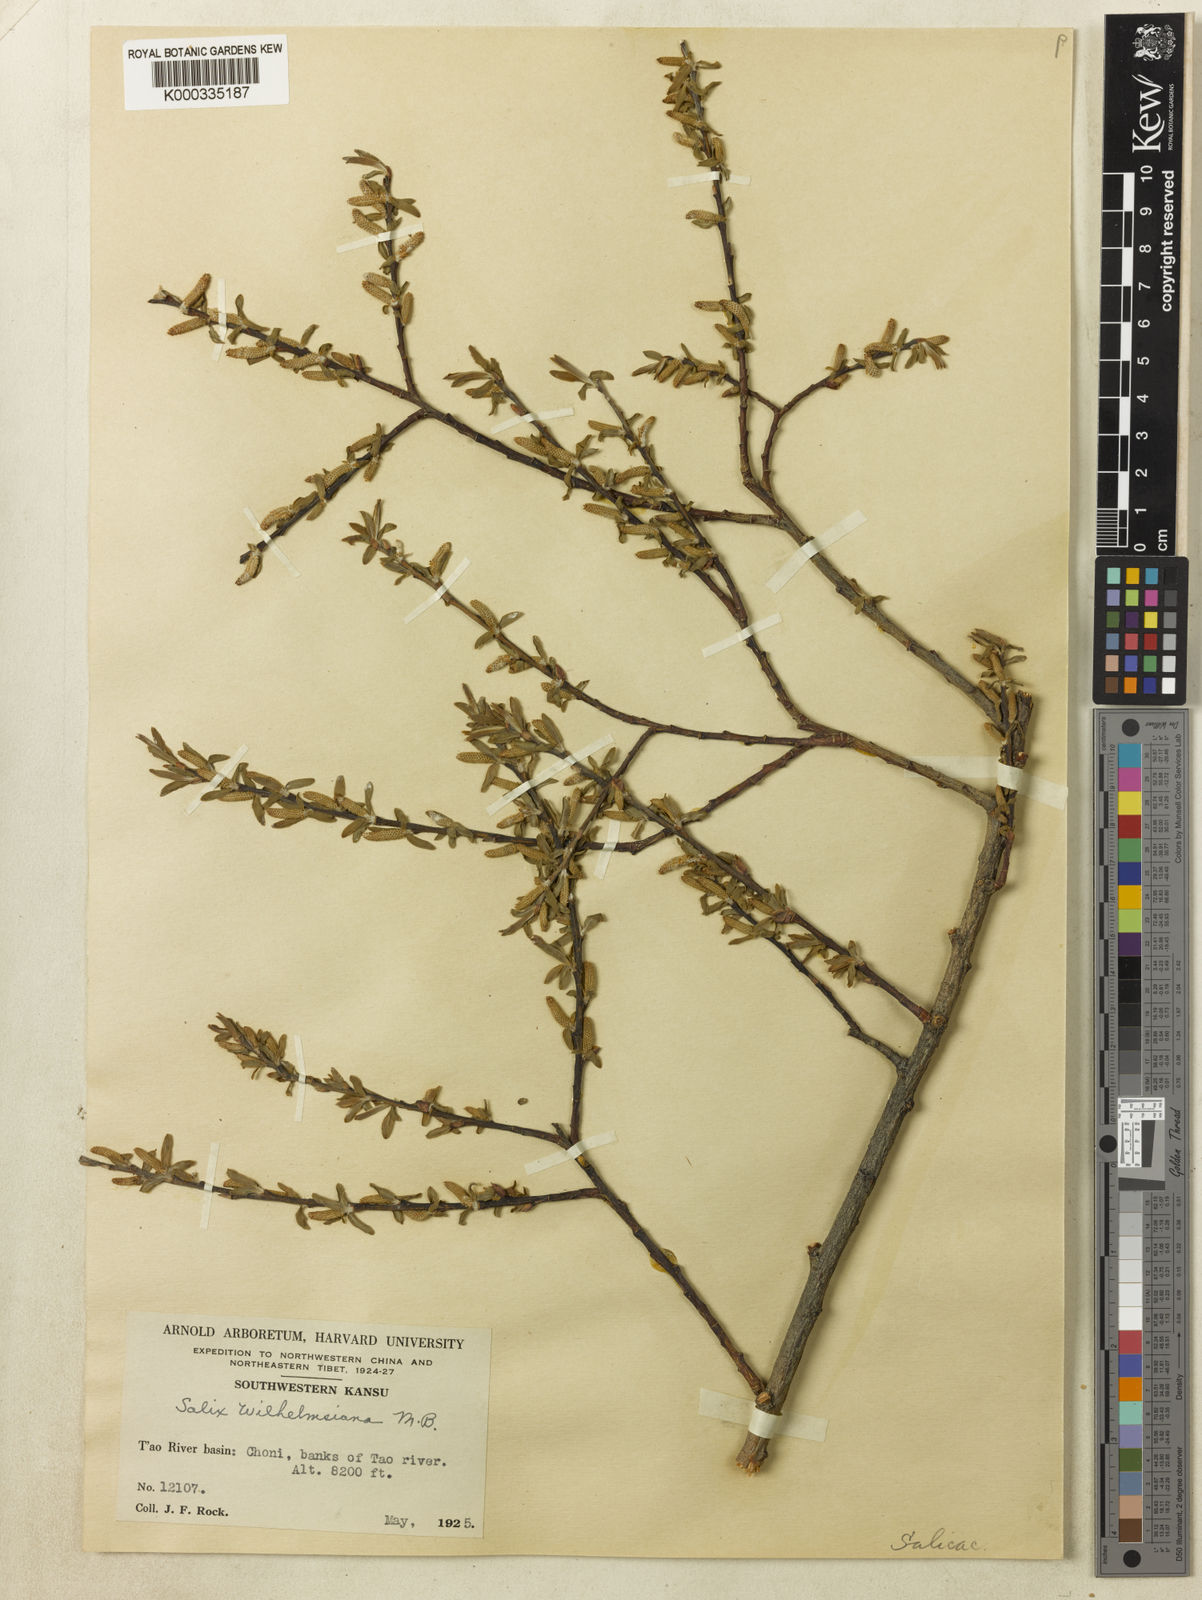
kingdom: Plantae
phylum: Tracheophyta
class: Magnoliopsida
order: Malpighiales
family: Salicaceae
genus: Salix
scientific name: Salix wilhelmsiana
